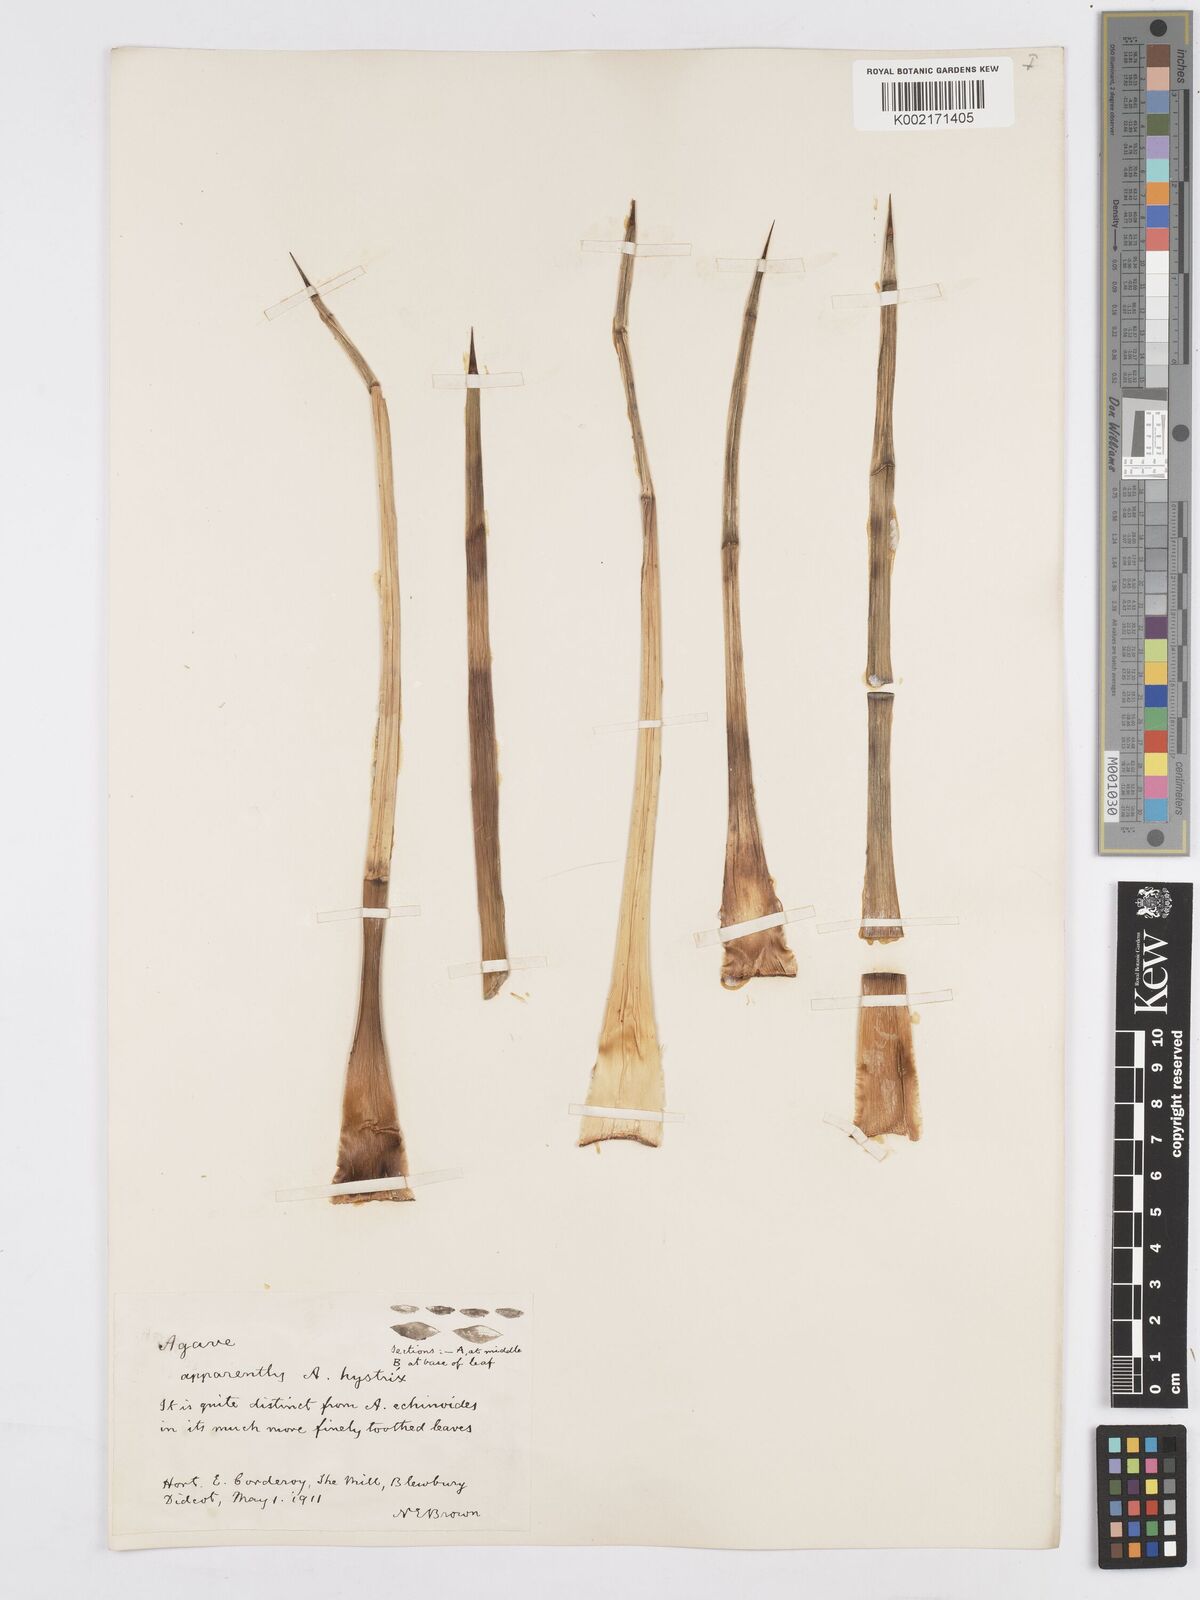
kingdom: Plantae
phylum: Tracheophyta
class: Liliopsida
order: Asparagales
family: Asparagaceae
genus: Agave
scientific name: Agave striata
